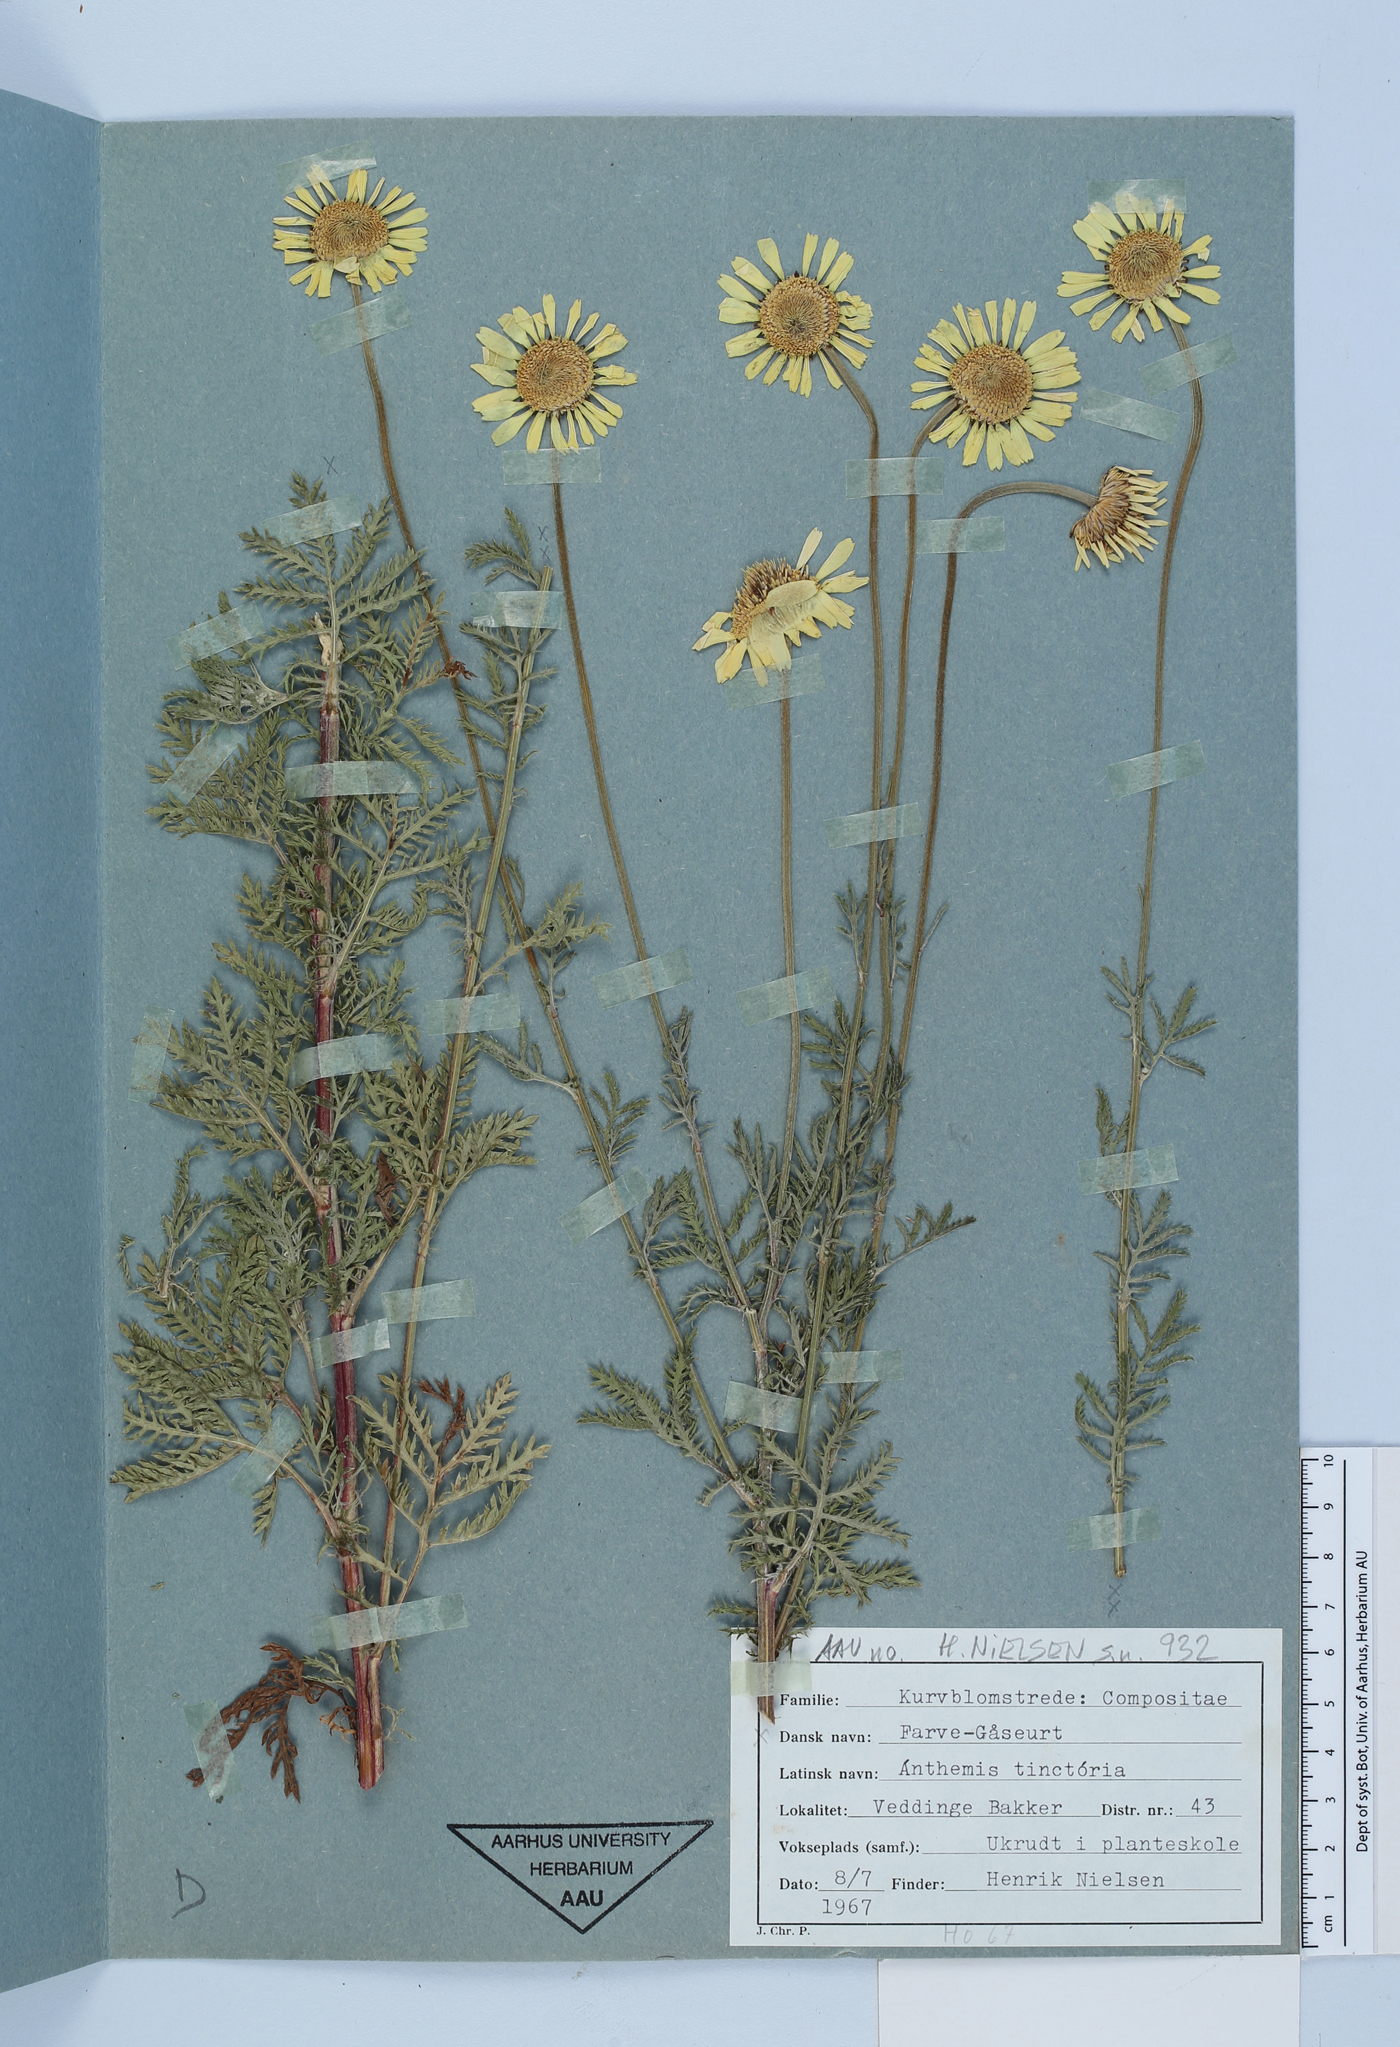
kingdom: Plantae
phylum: Tracheophyta
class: Magnoliopsida
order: Asterales
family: Asteraceae
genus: Cota
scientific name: Cota tinctoria
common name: Golden chamomile
